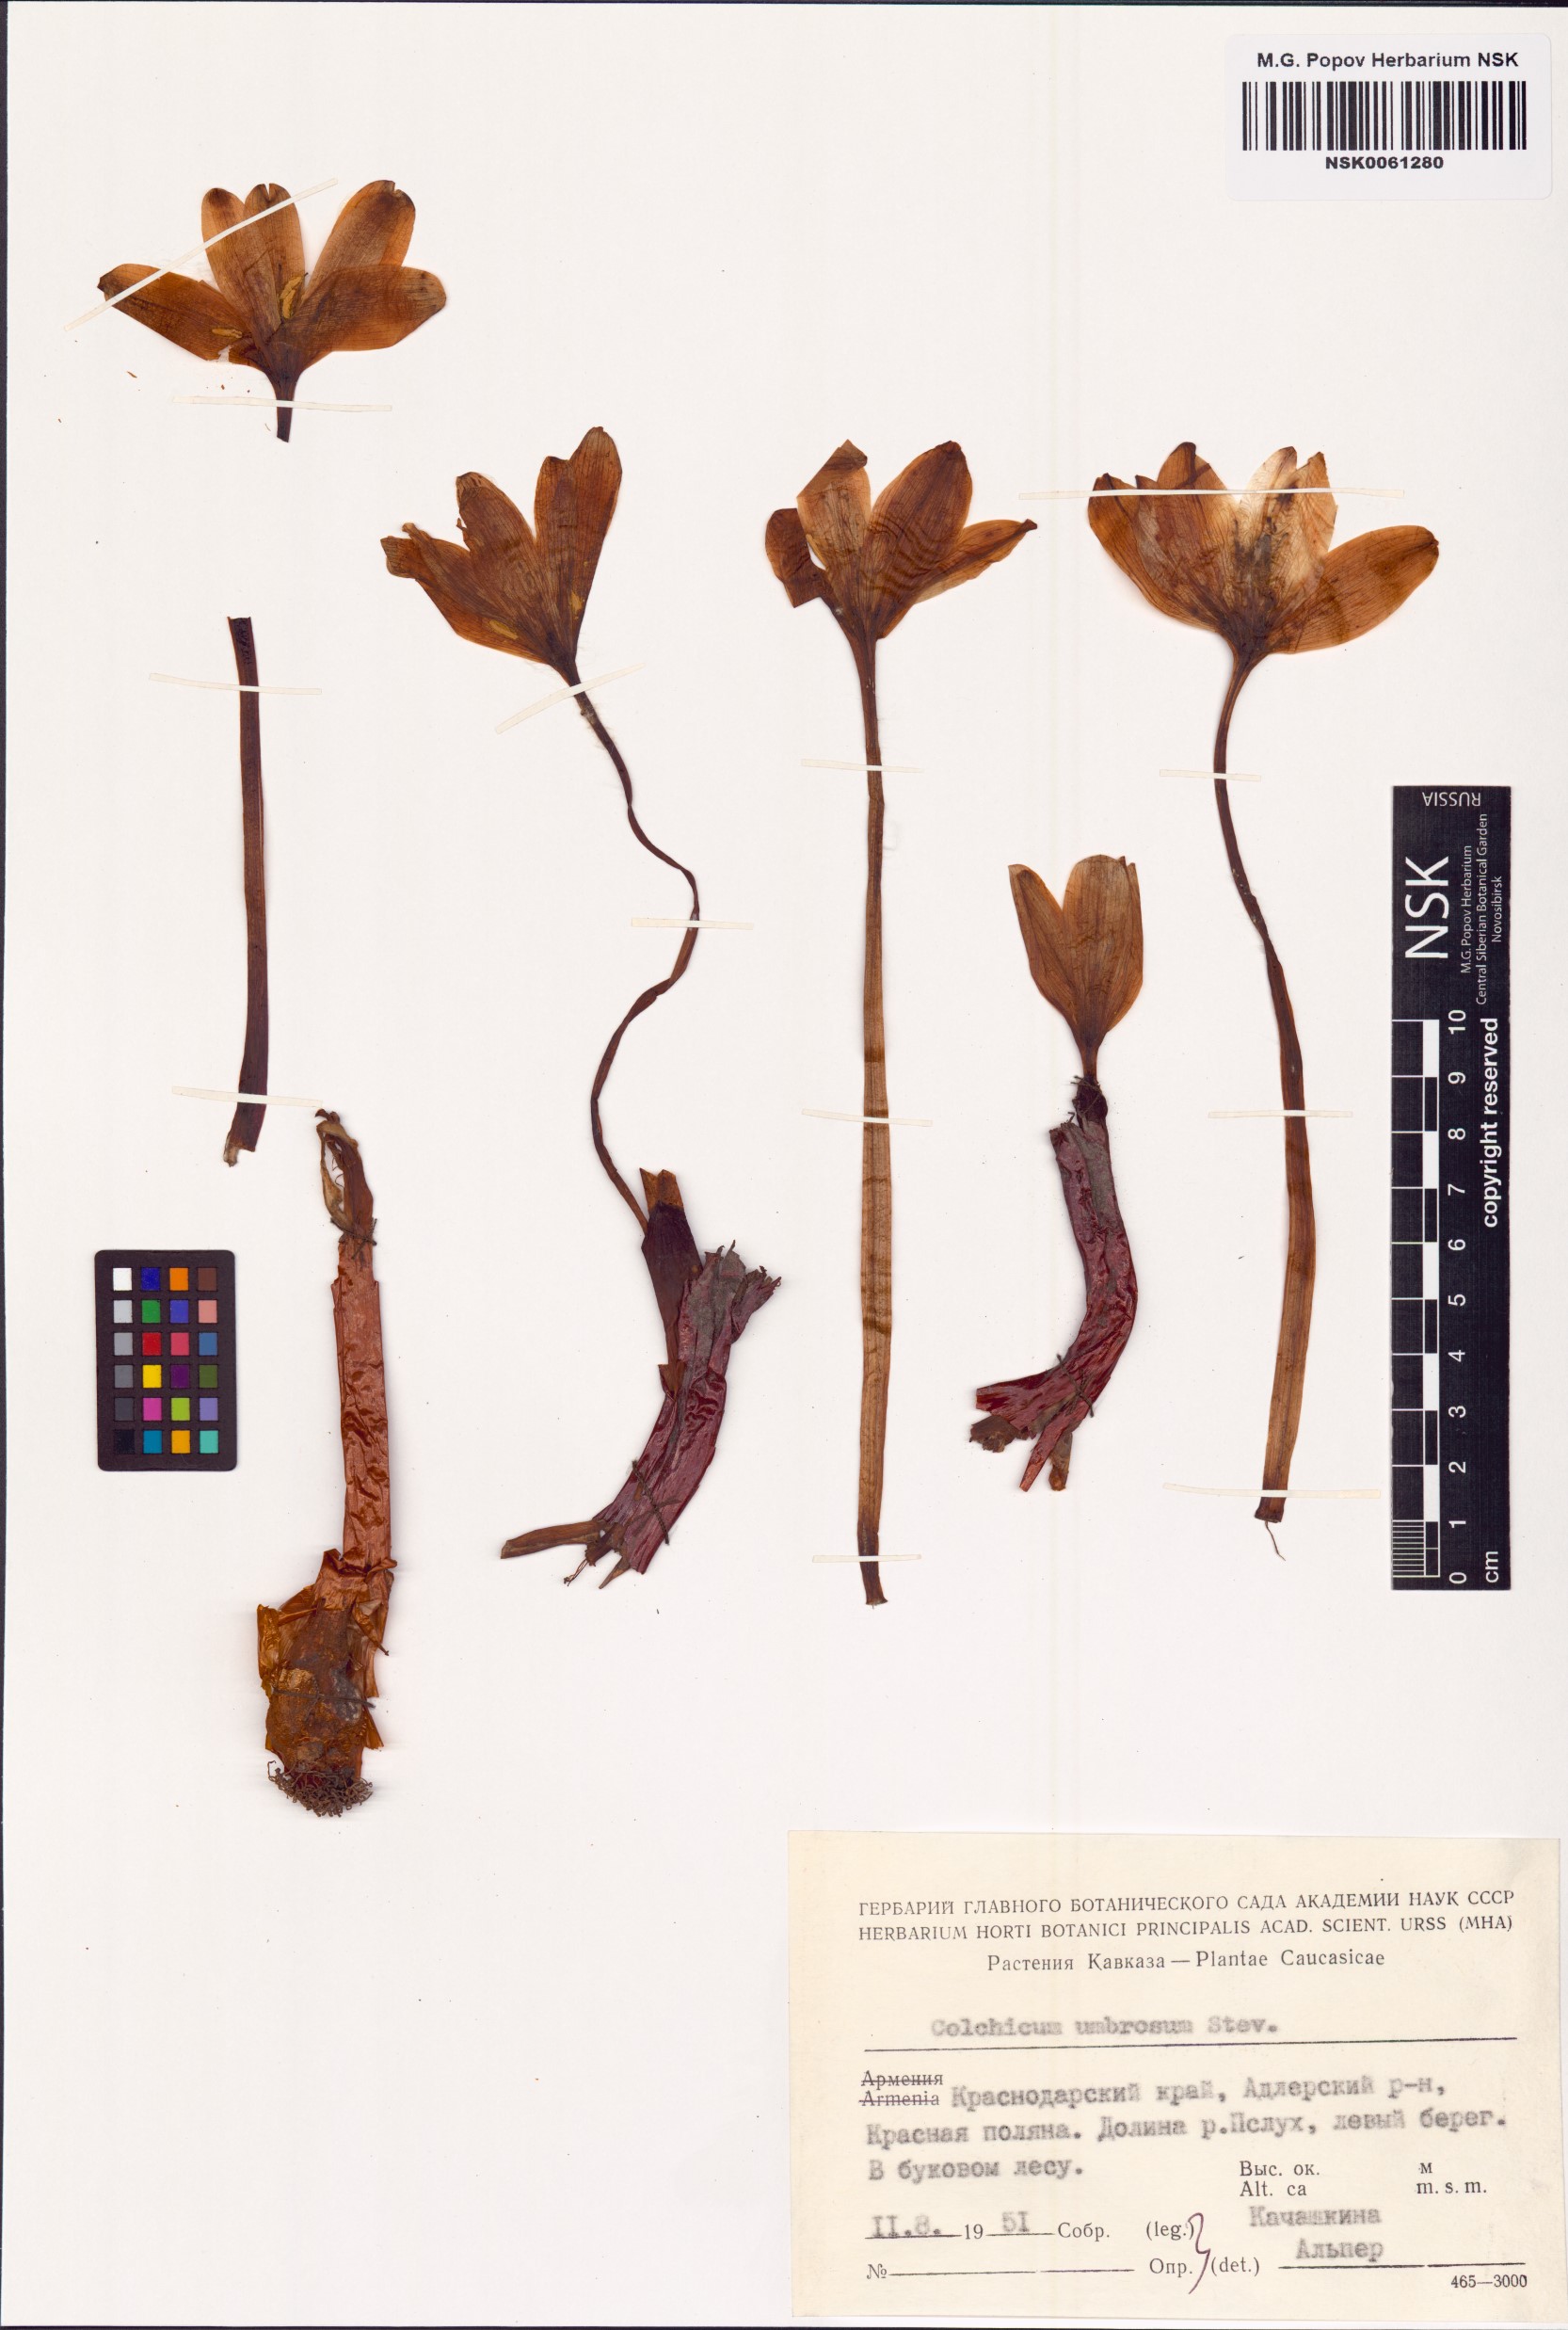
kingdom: Plantae
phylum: Tracheophyta
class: Liliopsida
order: Liliales
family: Colchicaceae
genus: Colchicum
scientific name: Colchicum umbrosum
